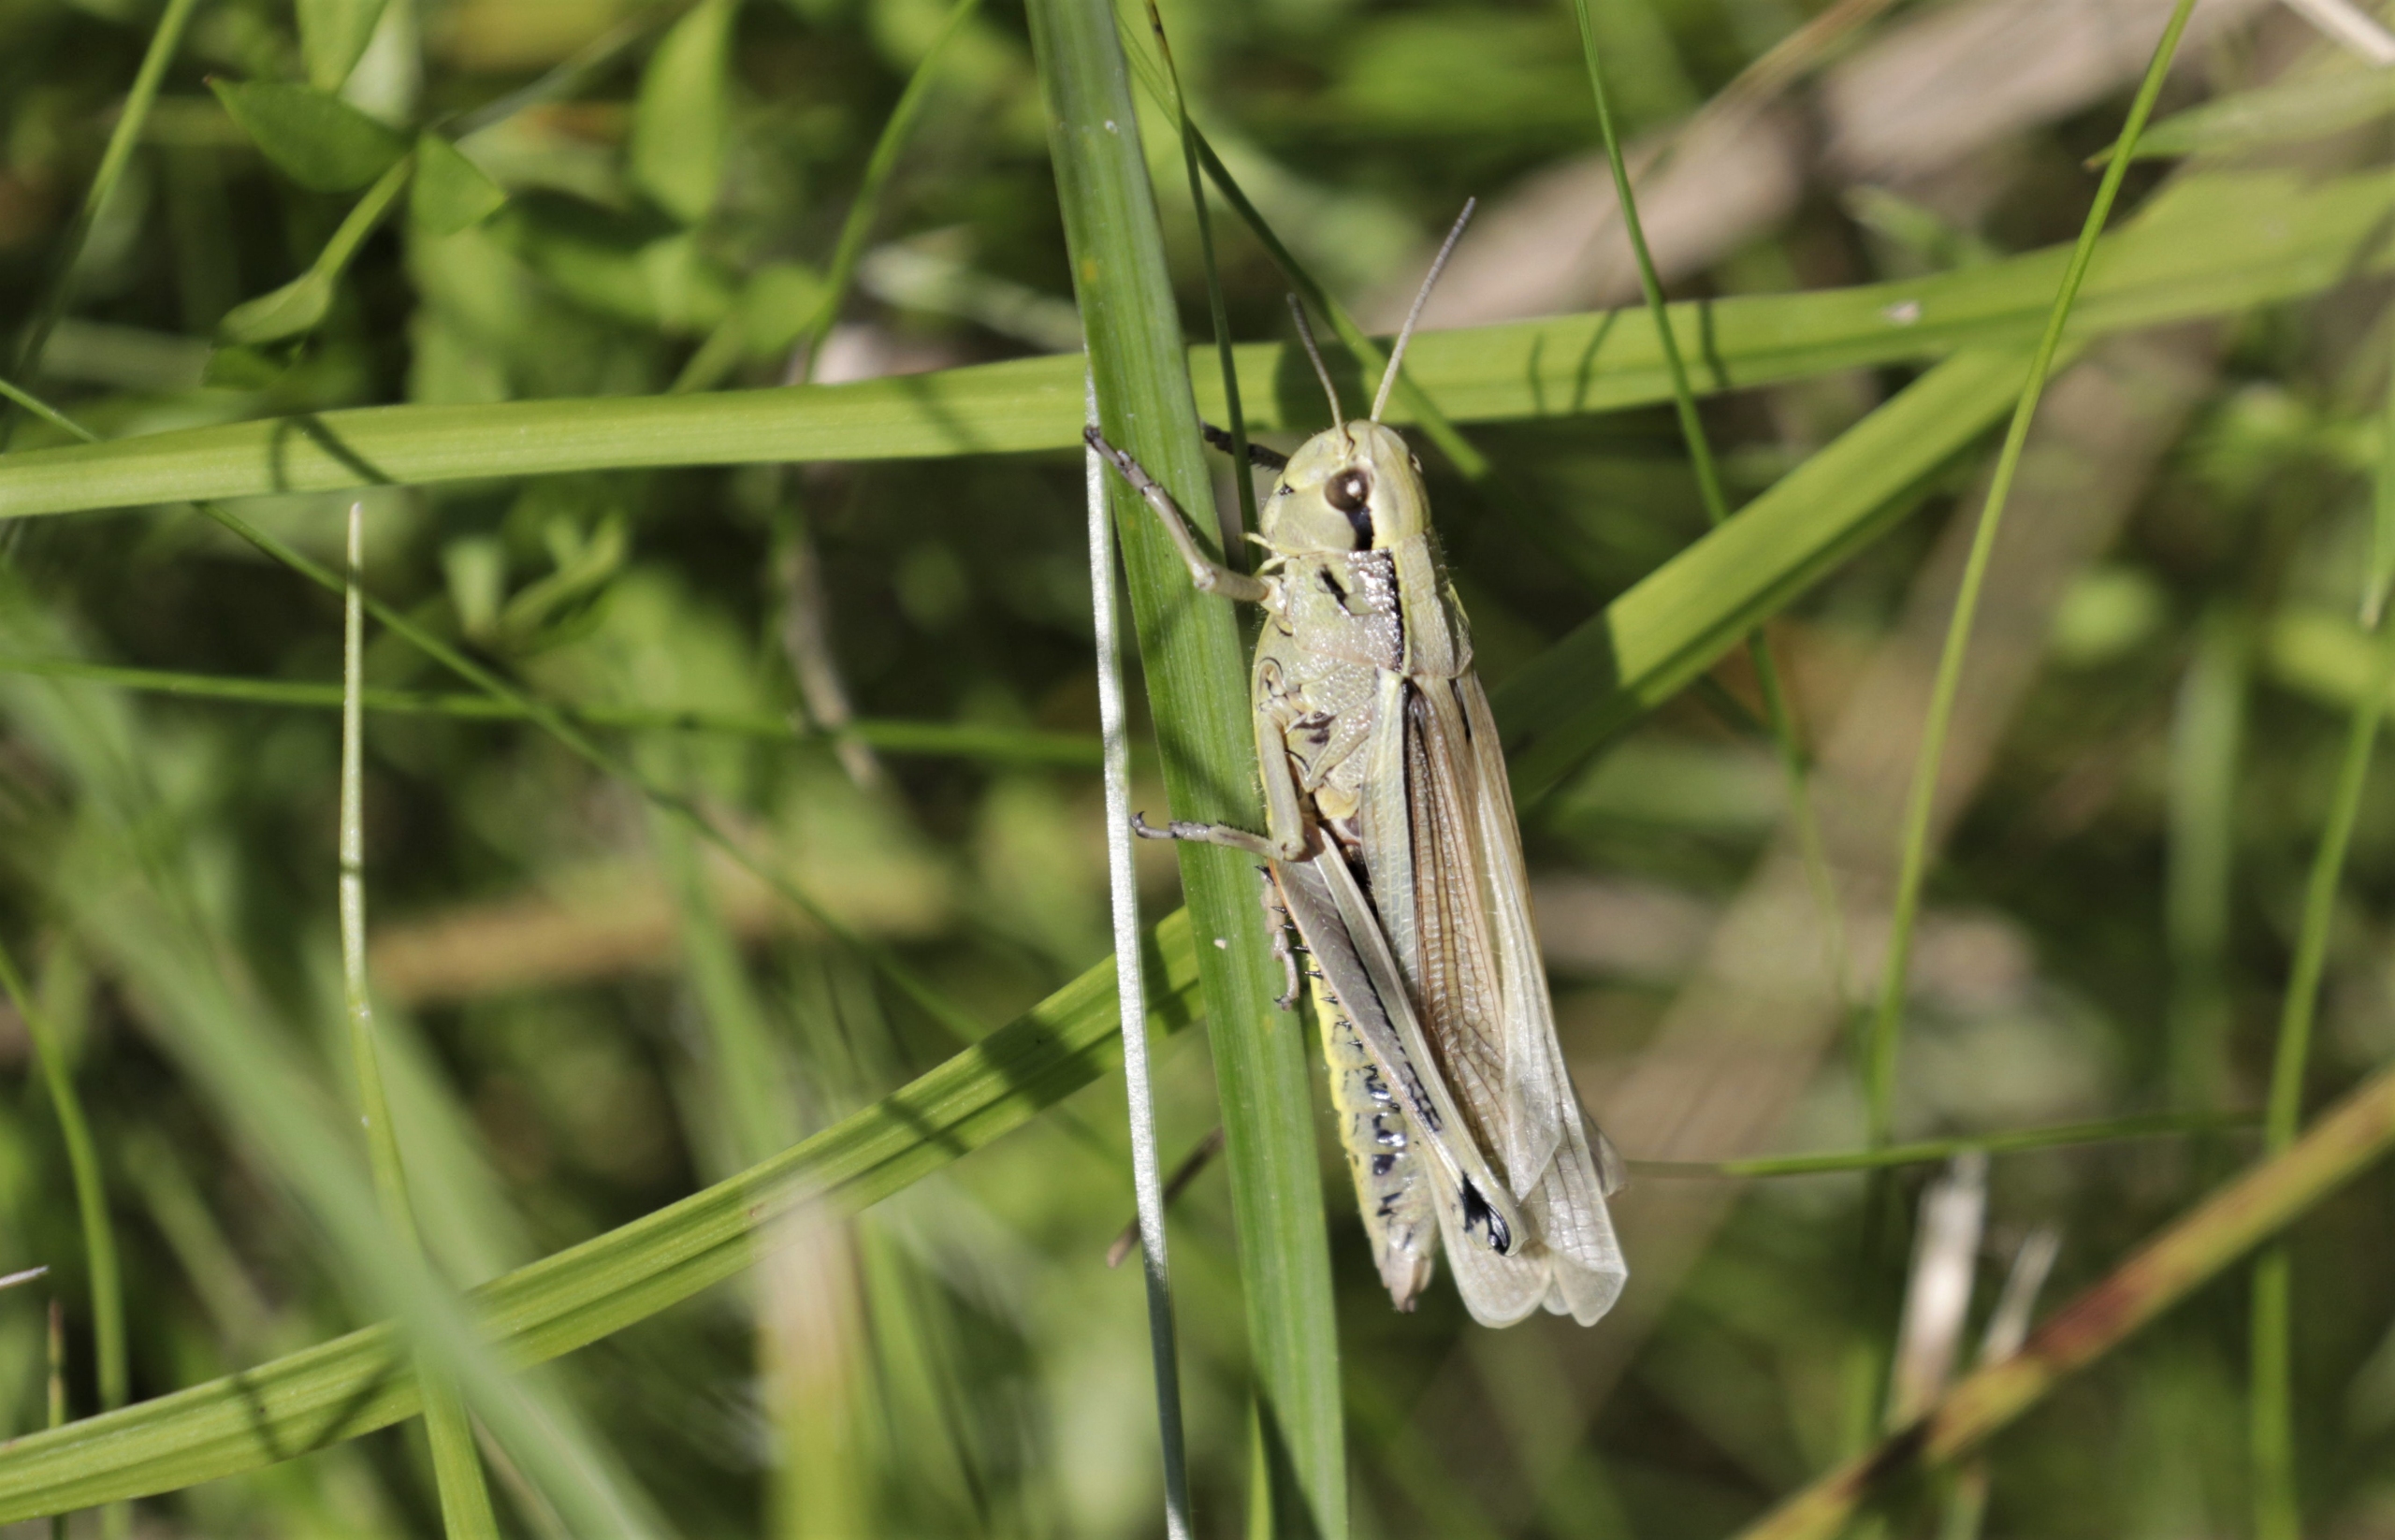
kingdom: Animalia
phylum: Arthropoda
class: Insecta
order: Orthoptera
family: Acrididae
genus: Stethophyma
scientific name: Stethophyma grossum
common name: Sumpgræshoppe
